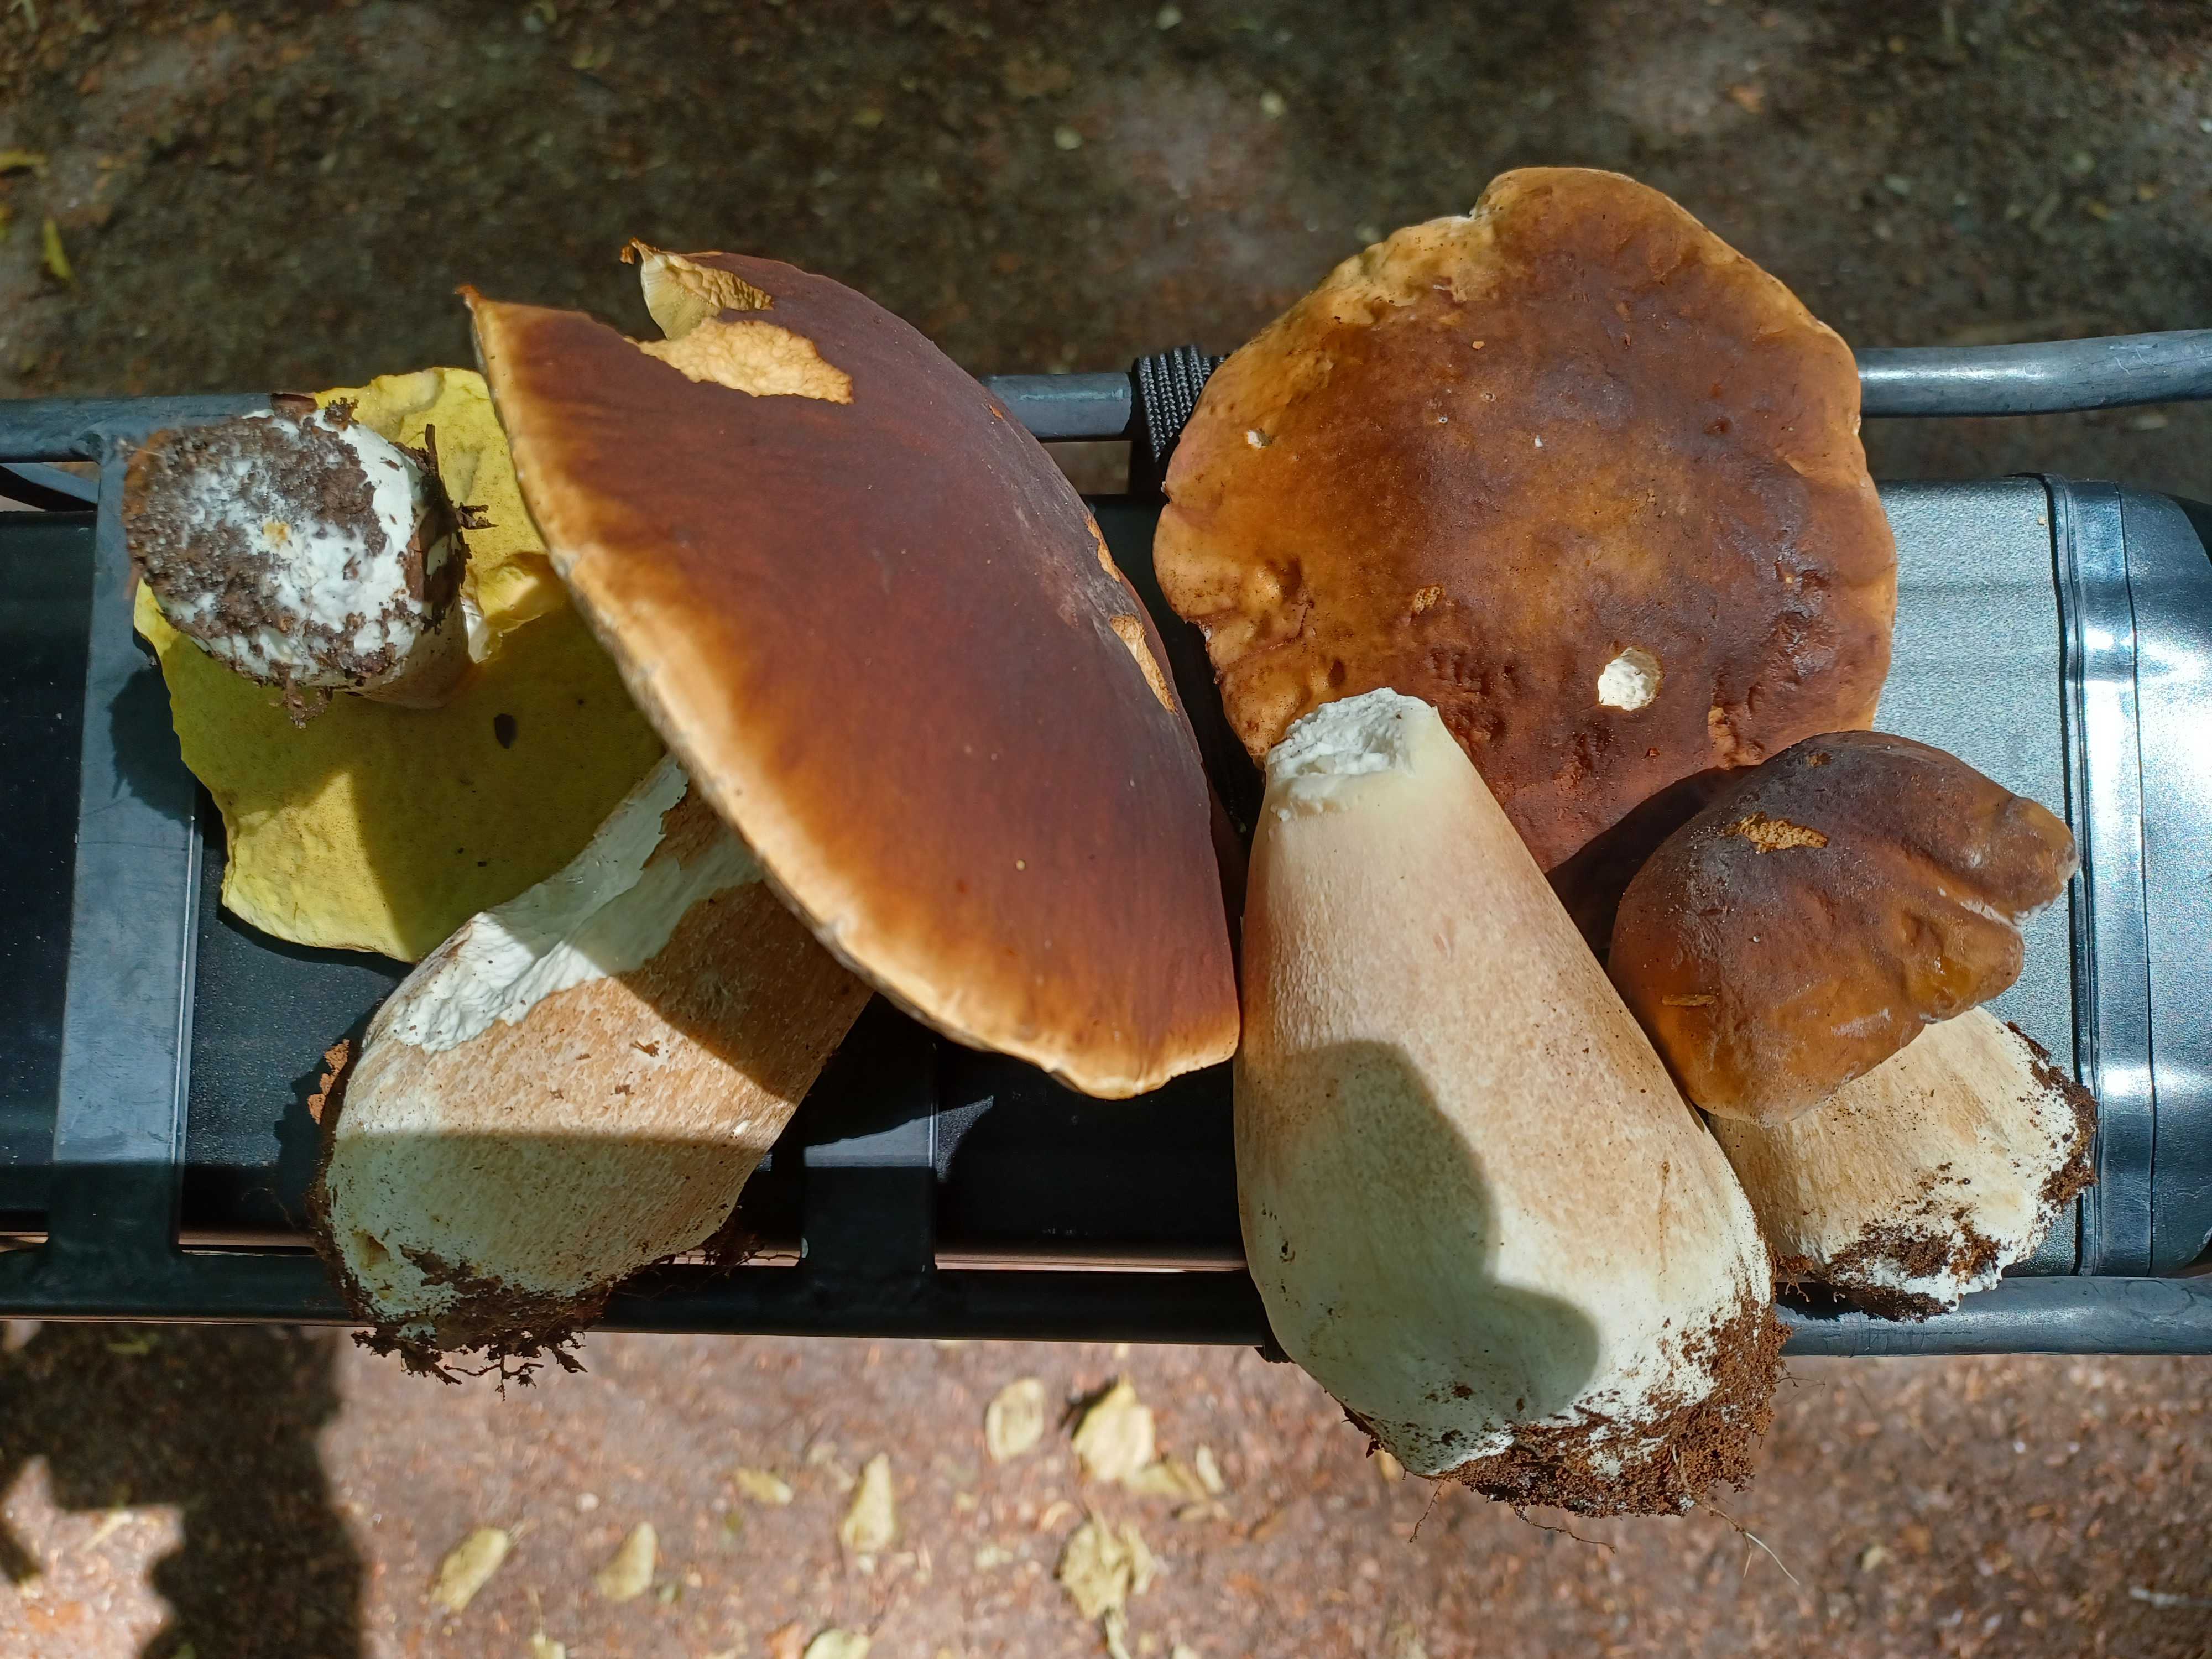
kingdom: Fungi
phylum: Basidiomycota
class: Agaricomycetes
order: Boletales
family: Boletaceae
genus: Boletus
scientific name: Boletus edulis
